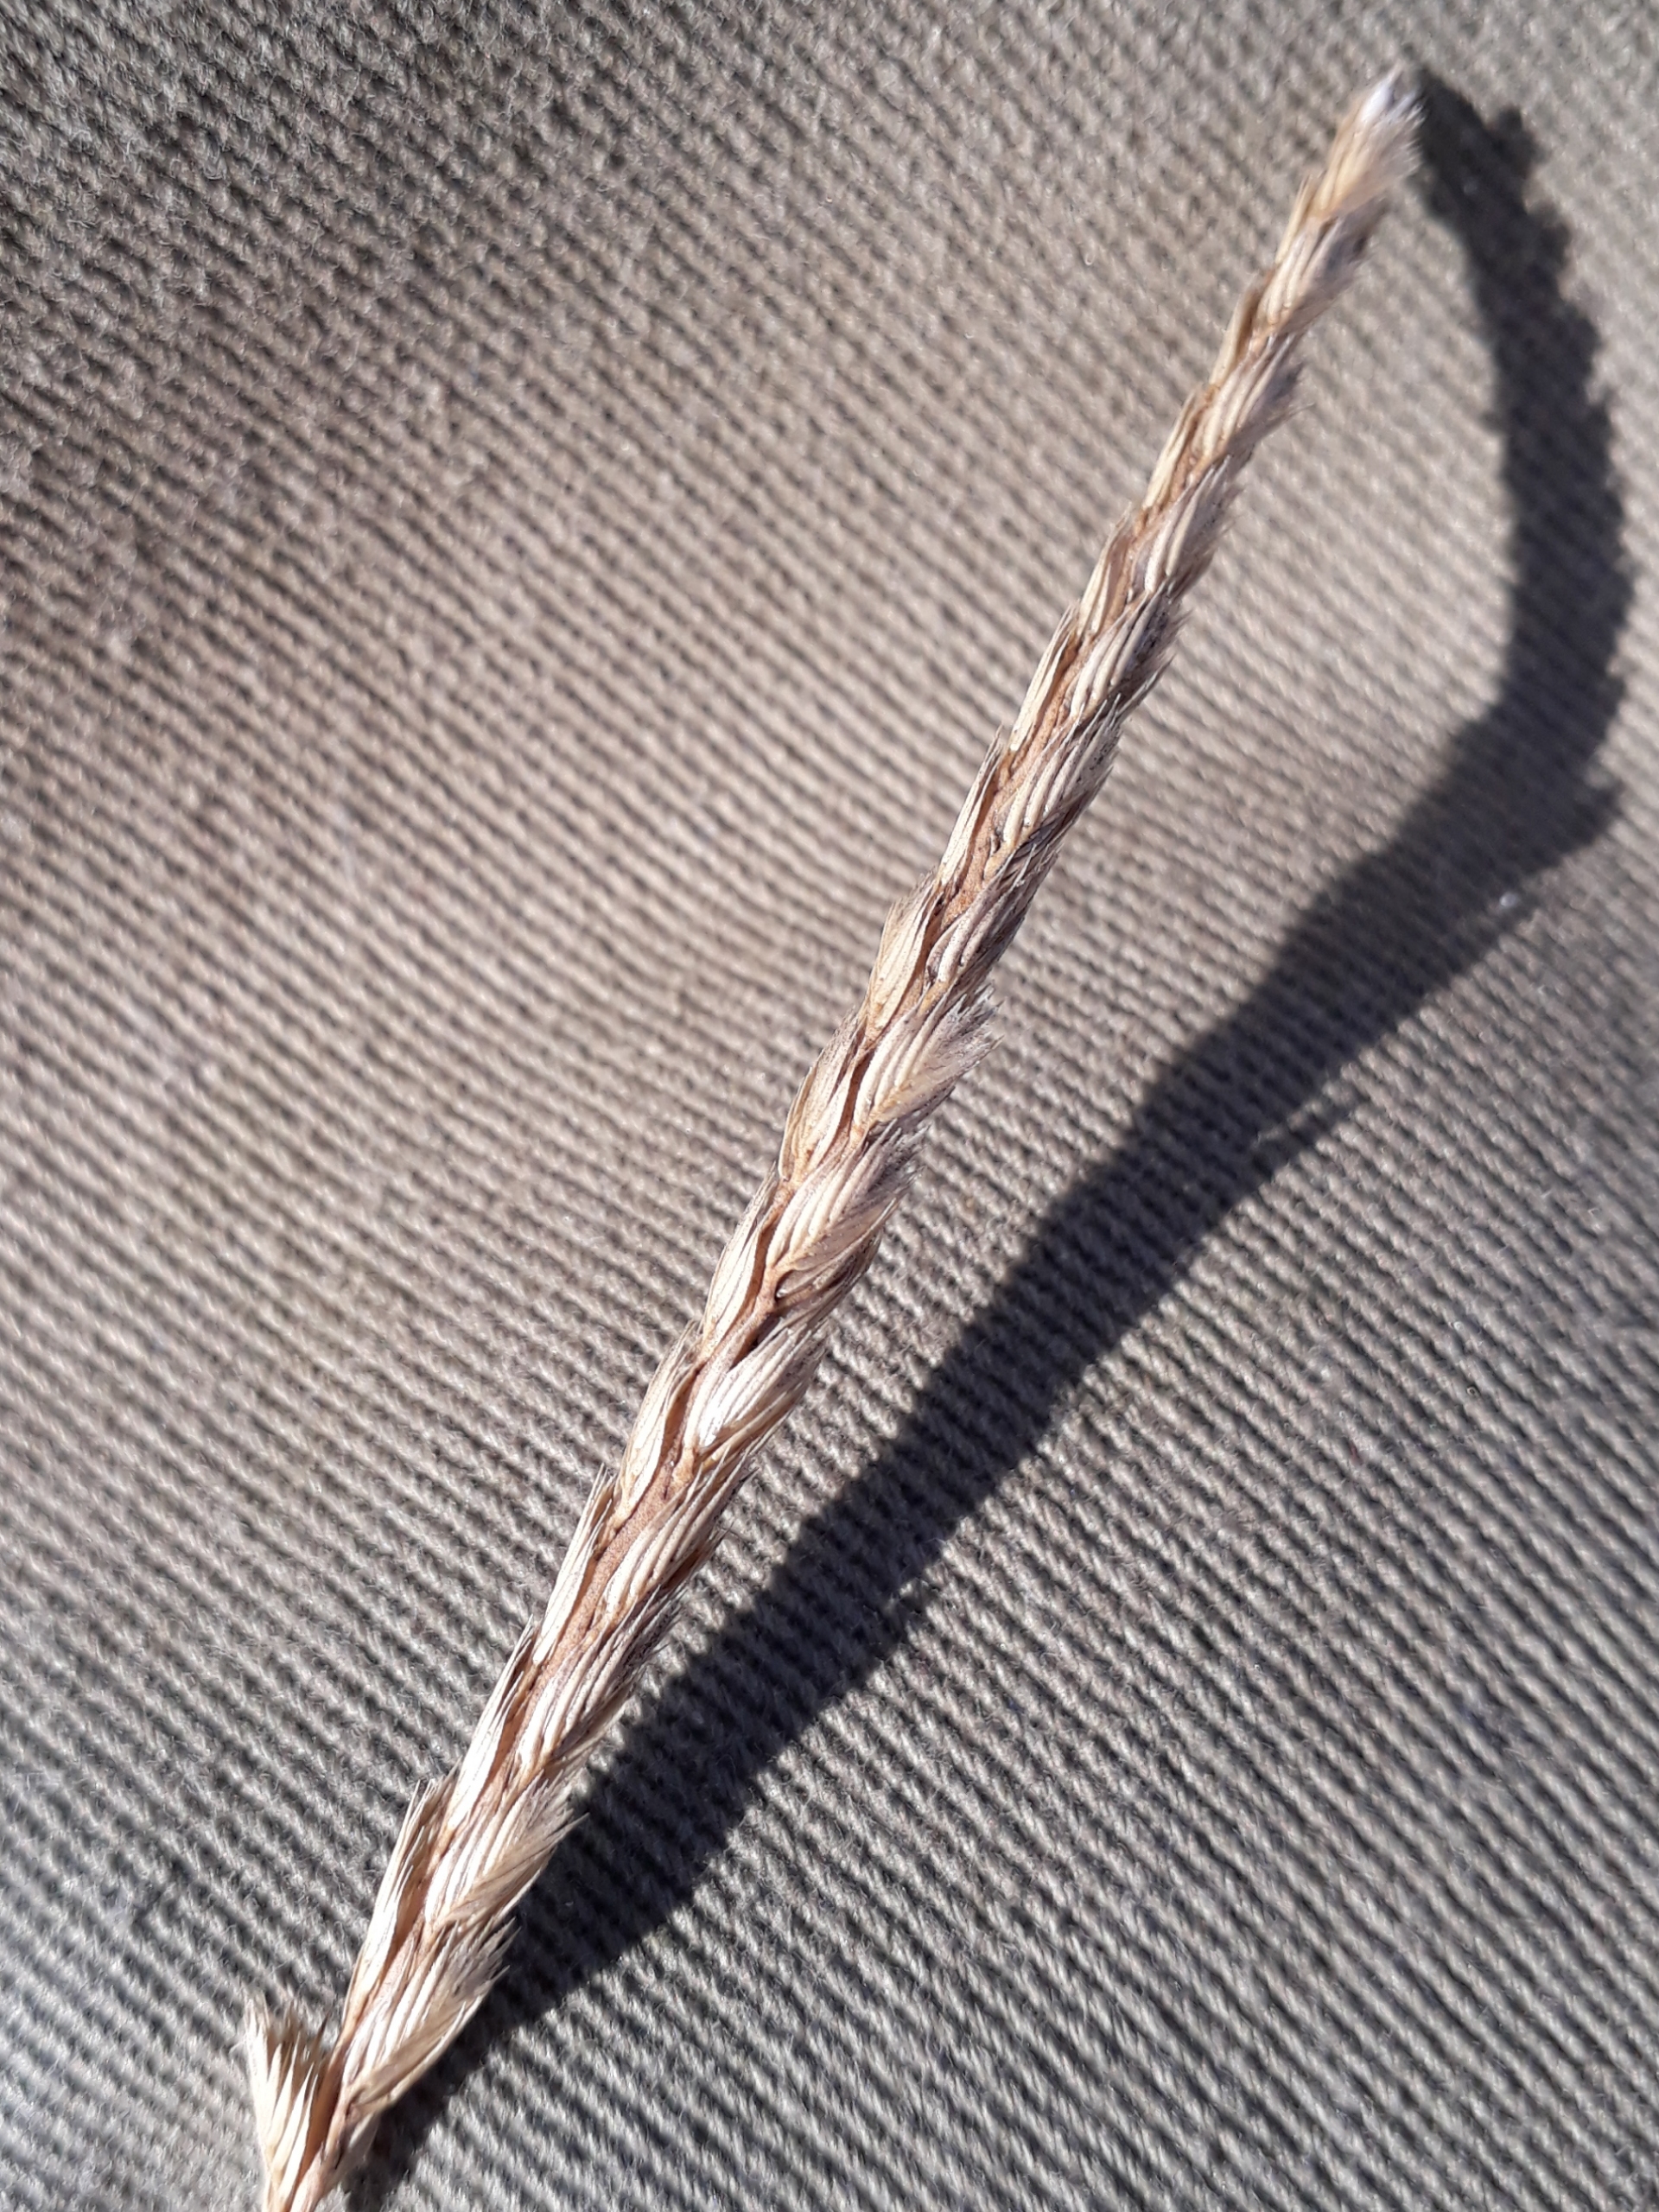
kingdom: Plantae
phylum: Tracheophyta
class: Liliopsida
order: Poales
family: Poaceae
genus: Cynosurus
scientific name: Cynosurus cristatus
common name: Kamgræs
